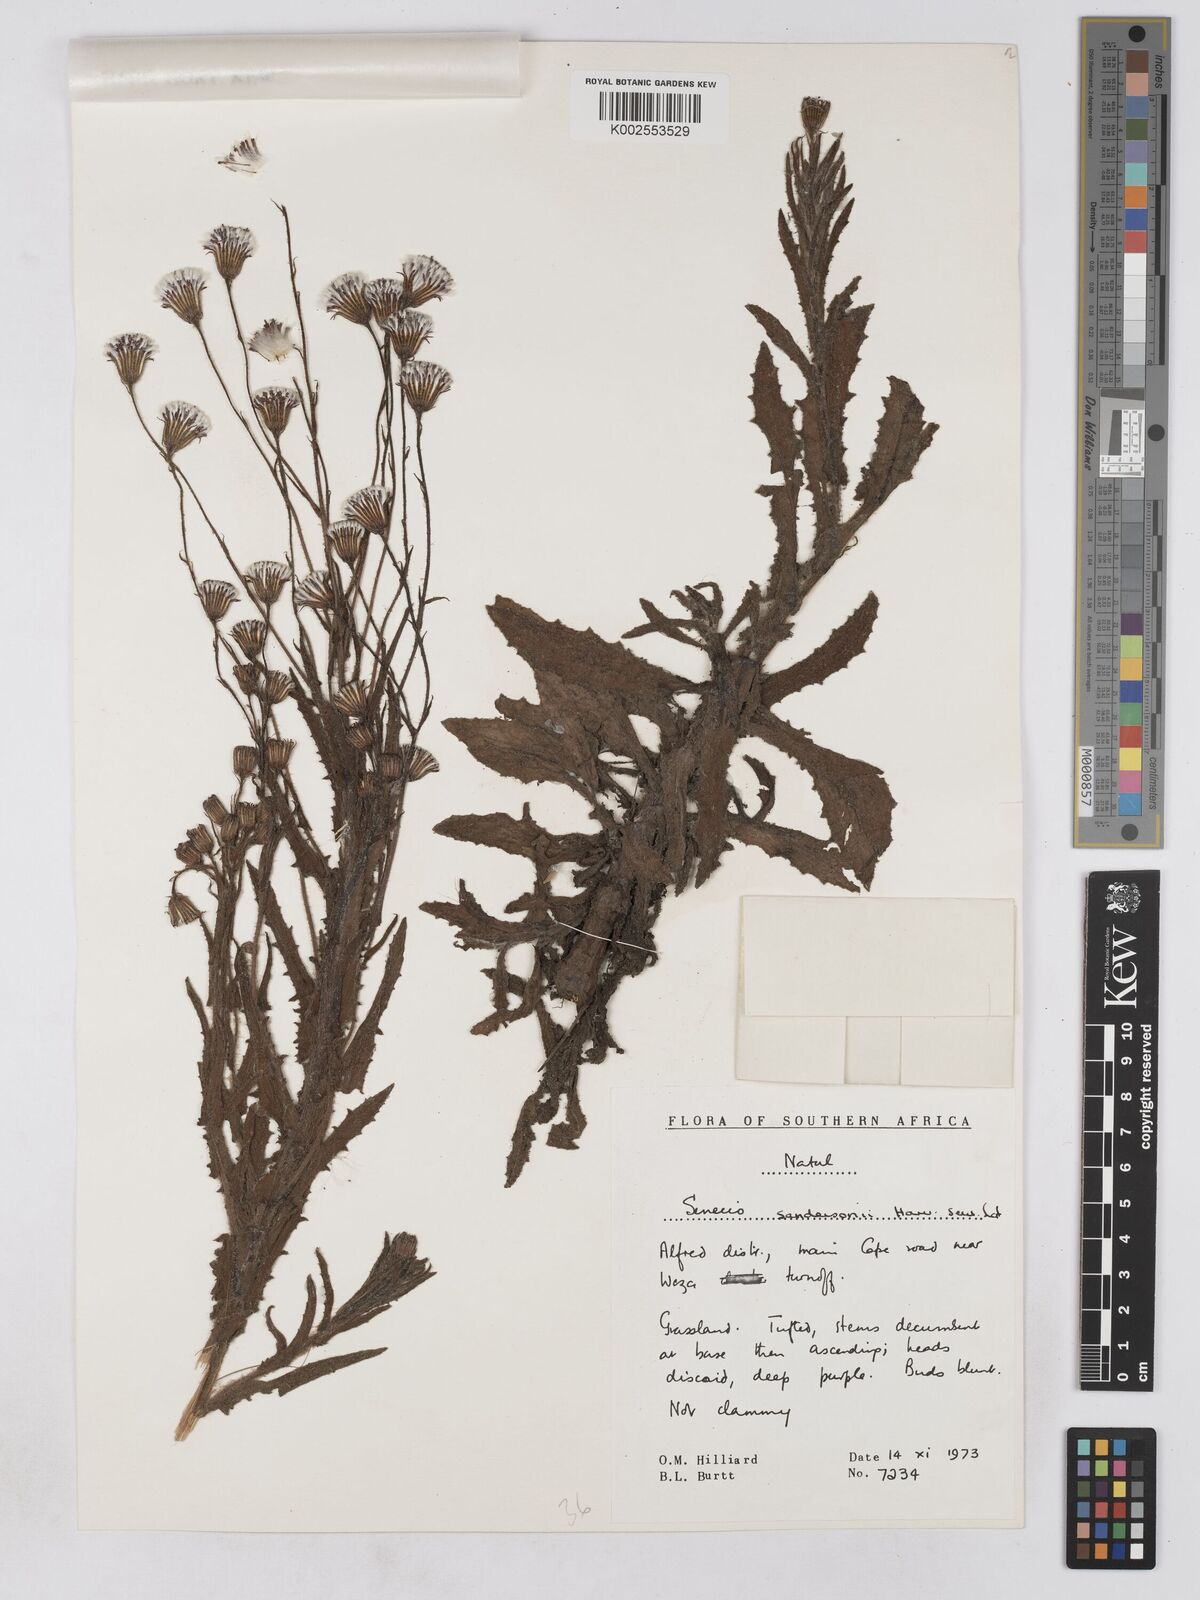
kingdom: Plantae
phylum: Tracheophyta
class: Magnoliopsida
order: Asterales
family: Asteraceae
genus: Senecio
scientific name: Senecio sandersonii
